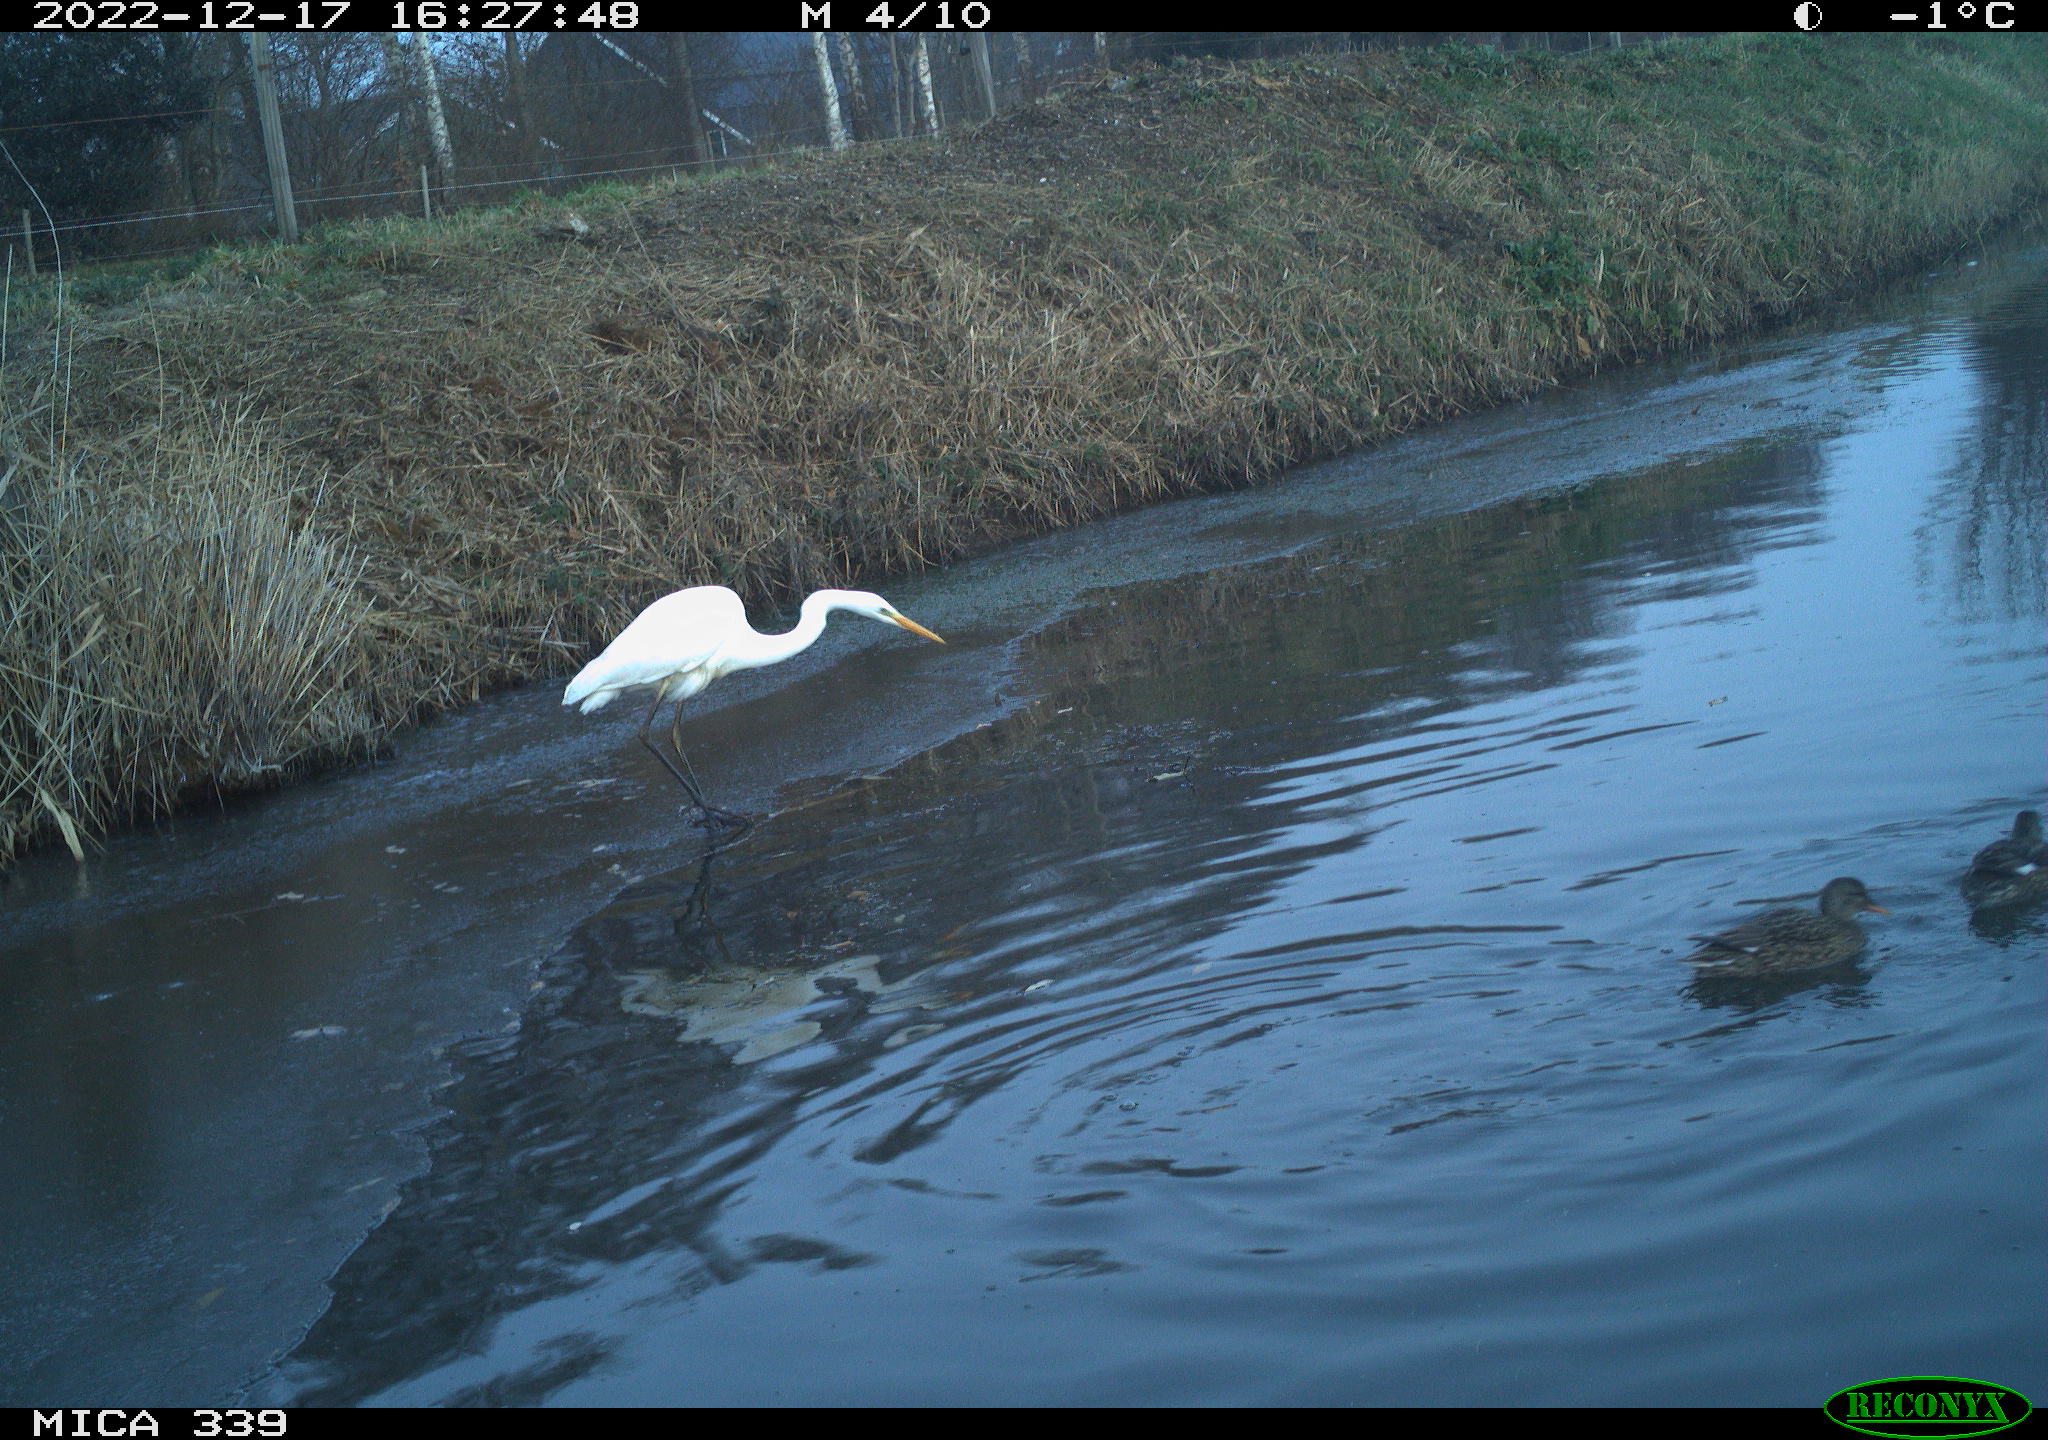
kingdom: Animalia
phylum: Chordata
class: Aves
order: Anseriformes
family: Anatidae
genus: Anas
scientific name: Anas crecca
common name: Eurasian teal
